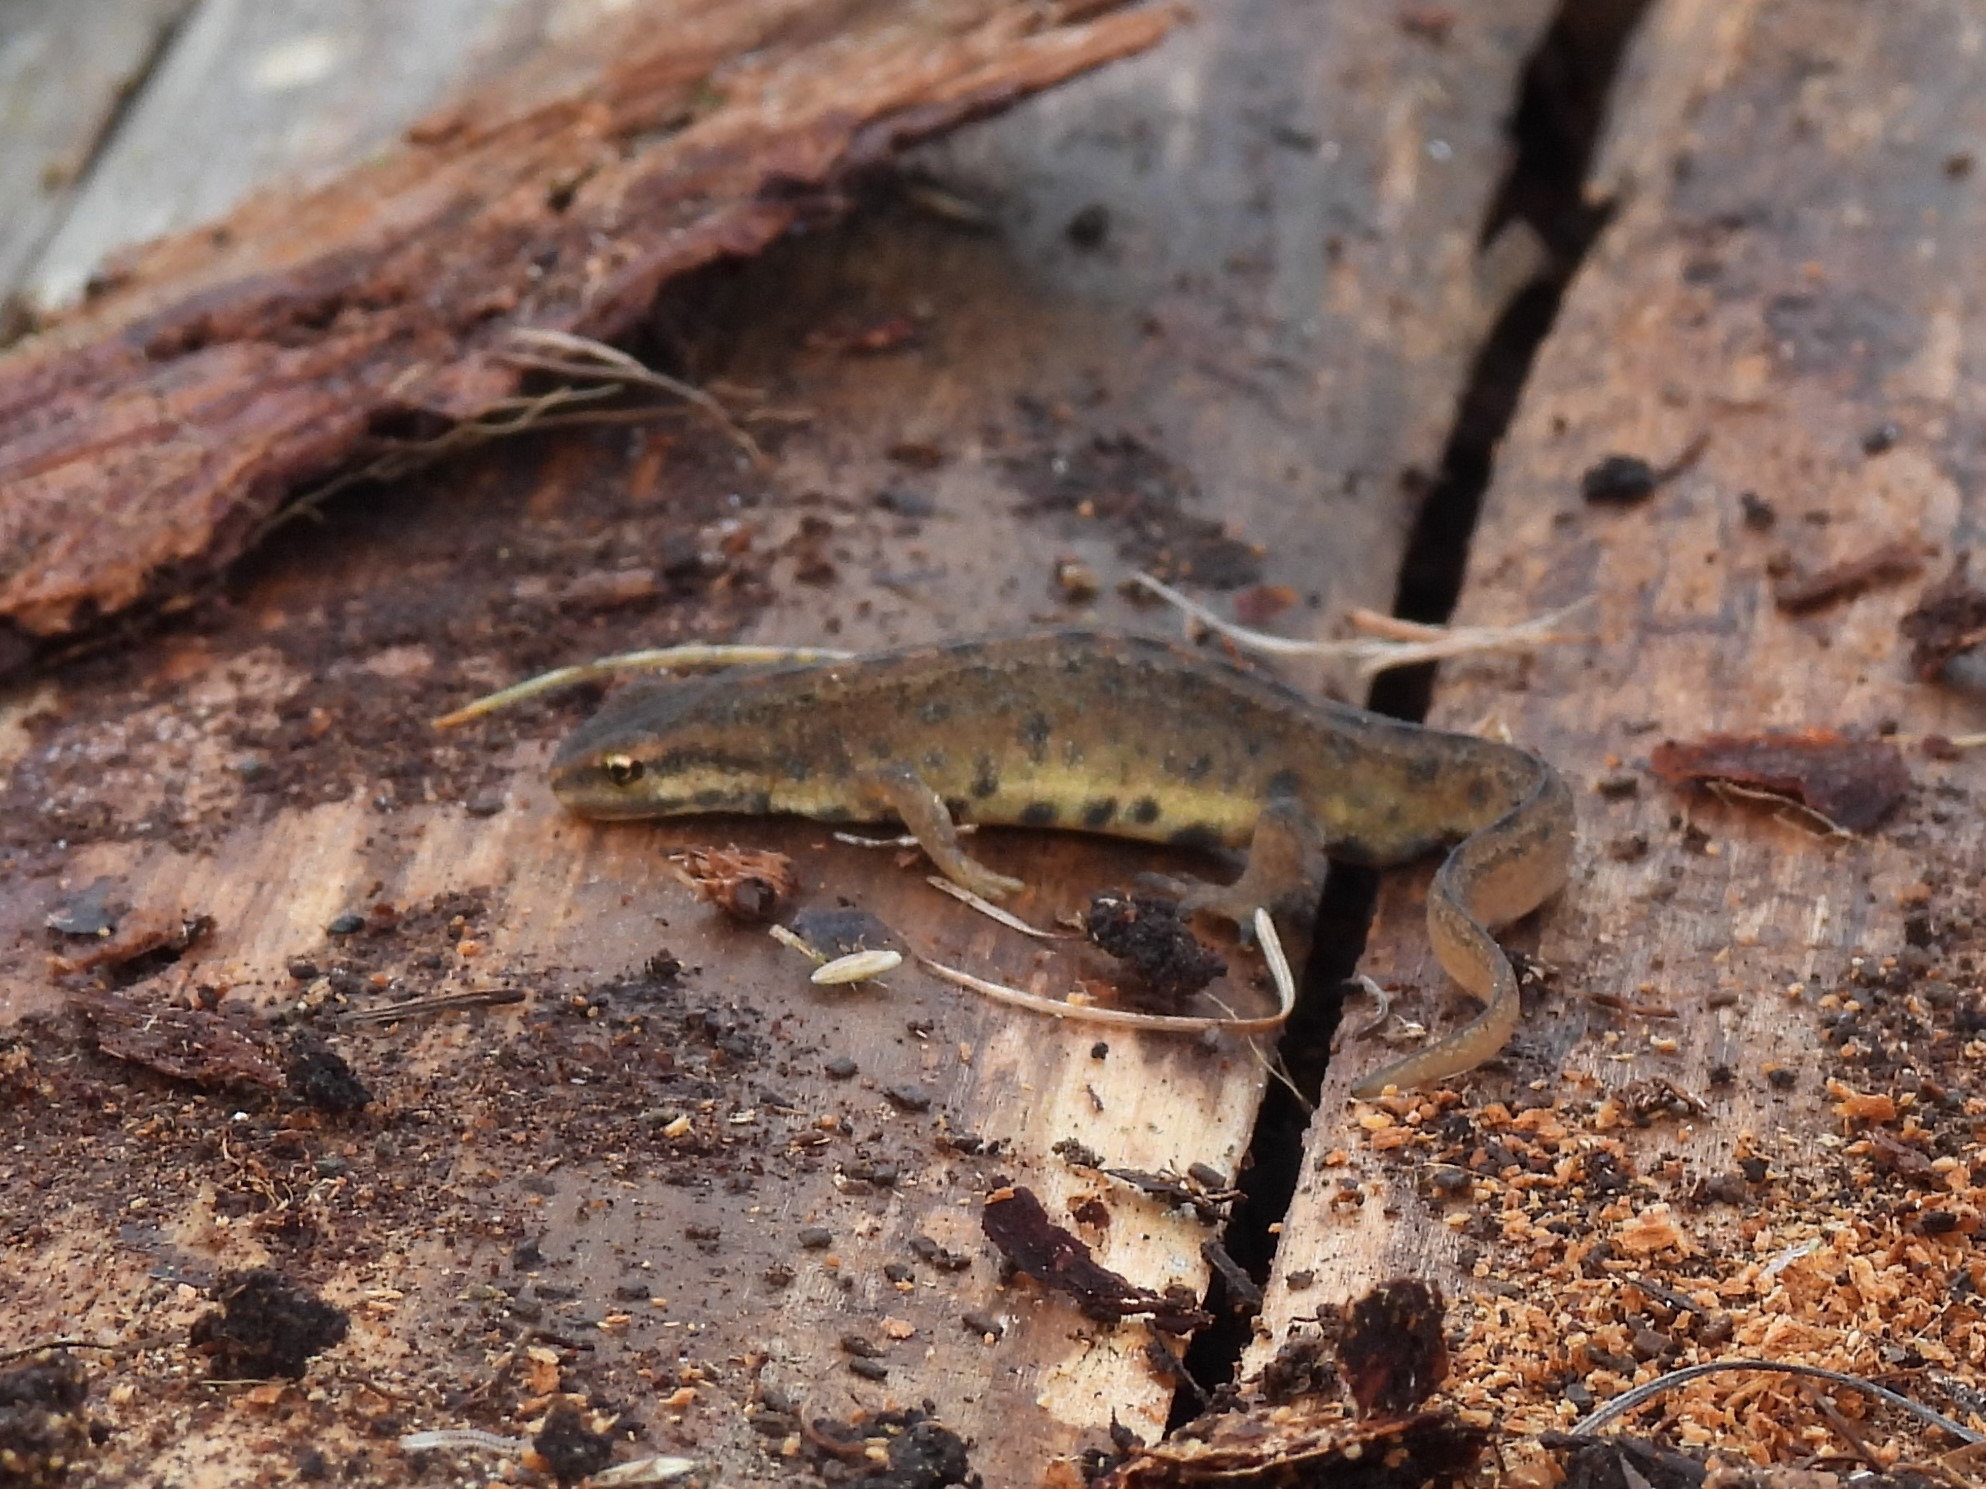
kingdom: Animalia
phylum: Chordata
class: Amphibia
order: Caudata
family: Salamandridae
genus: Lissotriton
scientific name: Lissotriton vulgaris
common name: Lille vandsalamander
